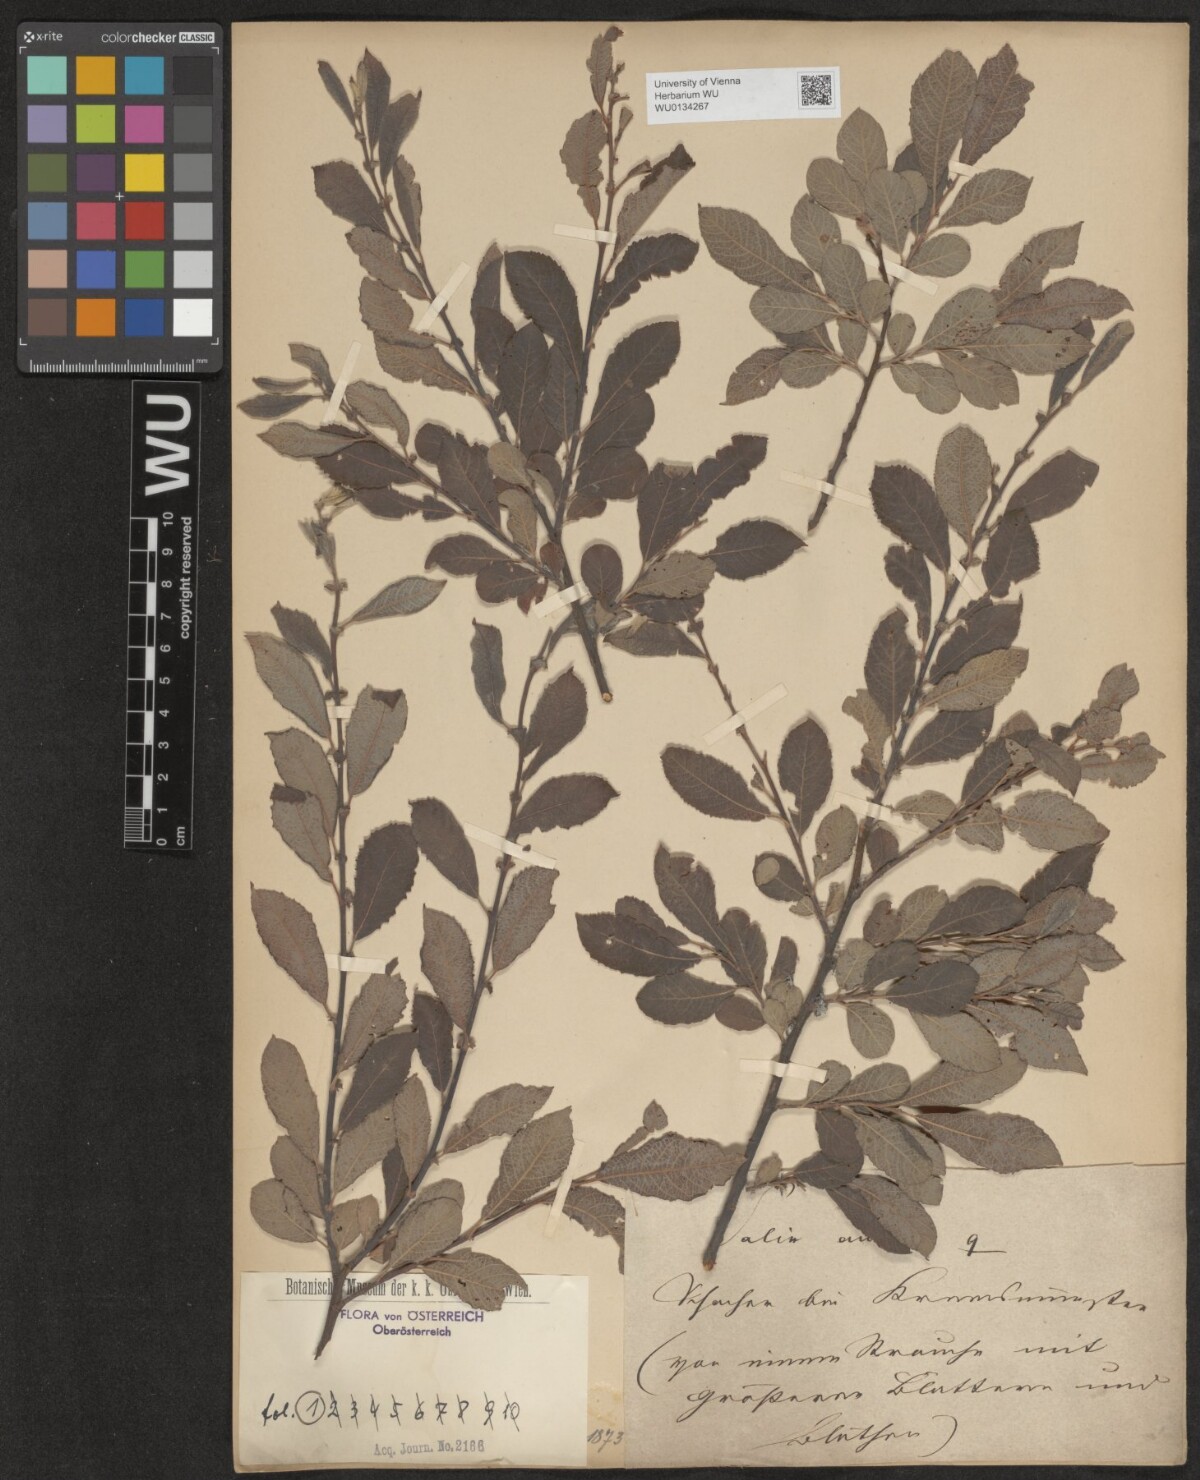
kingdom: Plantae
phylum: Tracheophyta
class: Magnoliopsida
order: Malpighiales
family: Salicaceae
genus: Salix
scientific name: Salix aurita
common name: Eared willow
